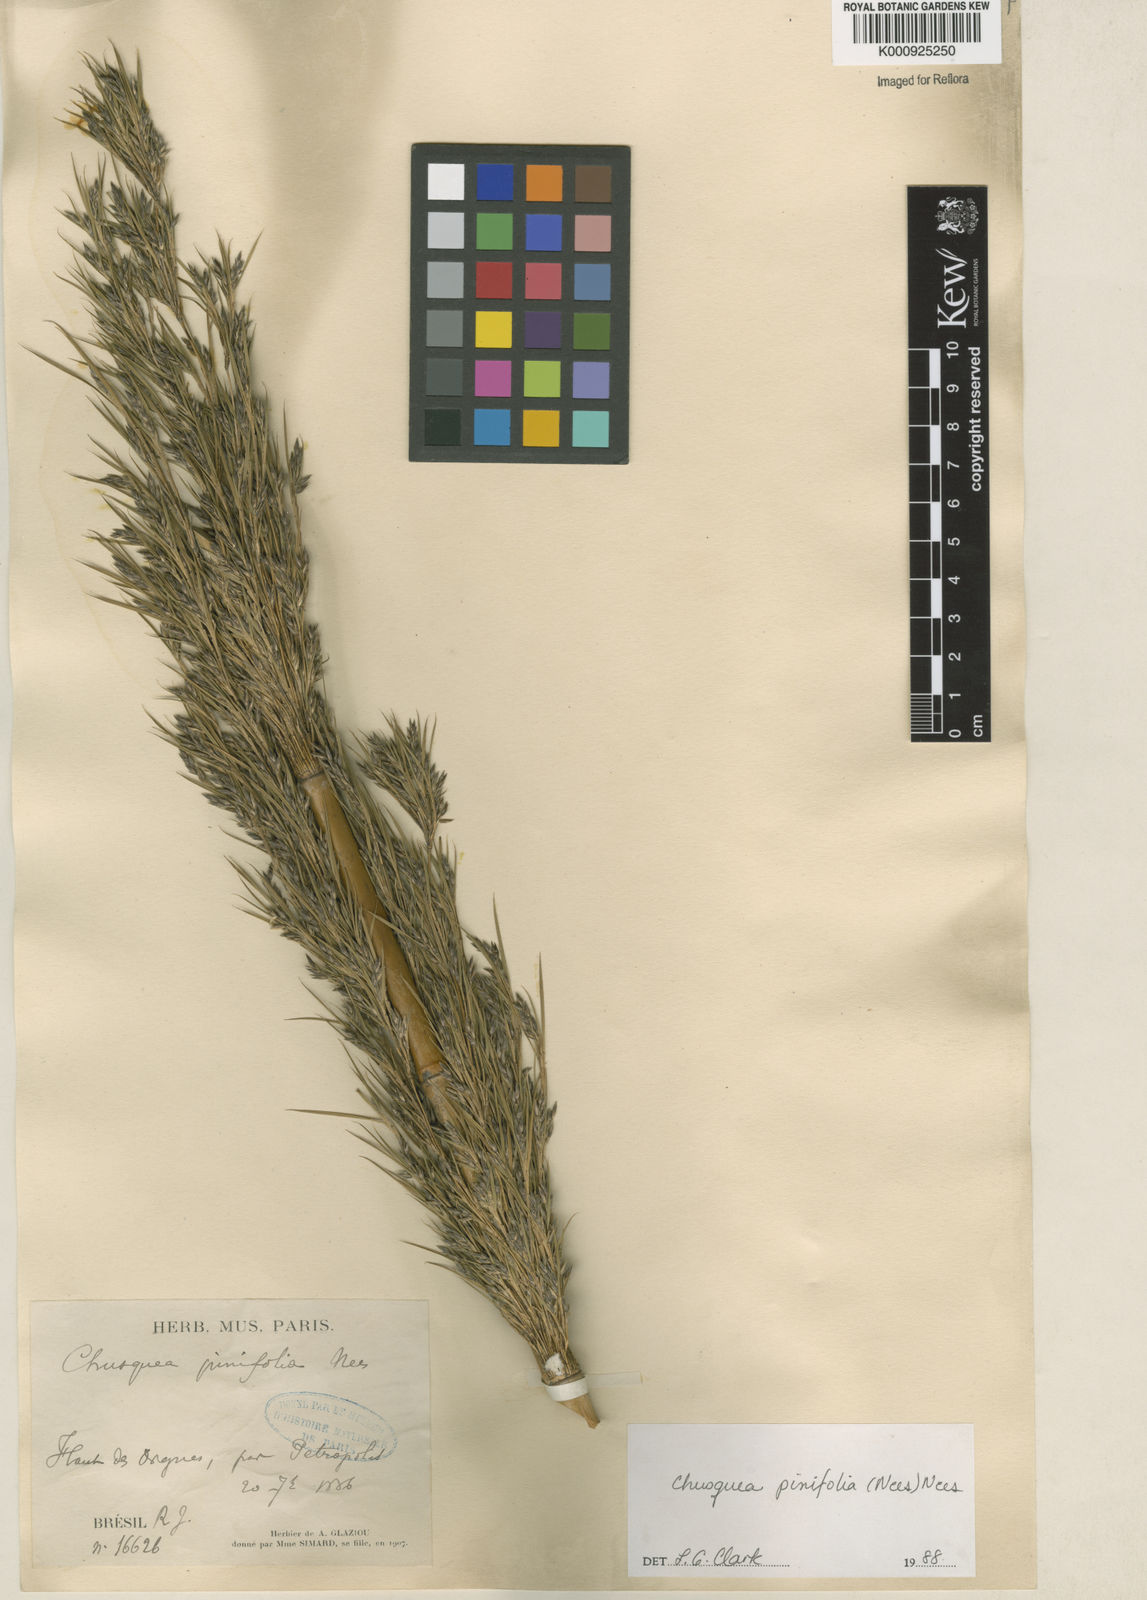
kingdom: Plantae
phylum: Tracheophyta
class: Liliopsida
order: Poales
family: Poaceae
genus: Chusquea
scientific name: Chusquea pinifolia
